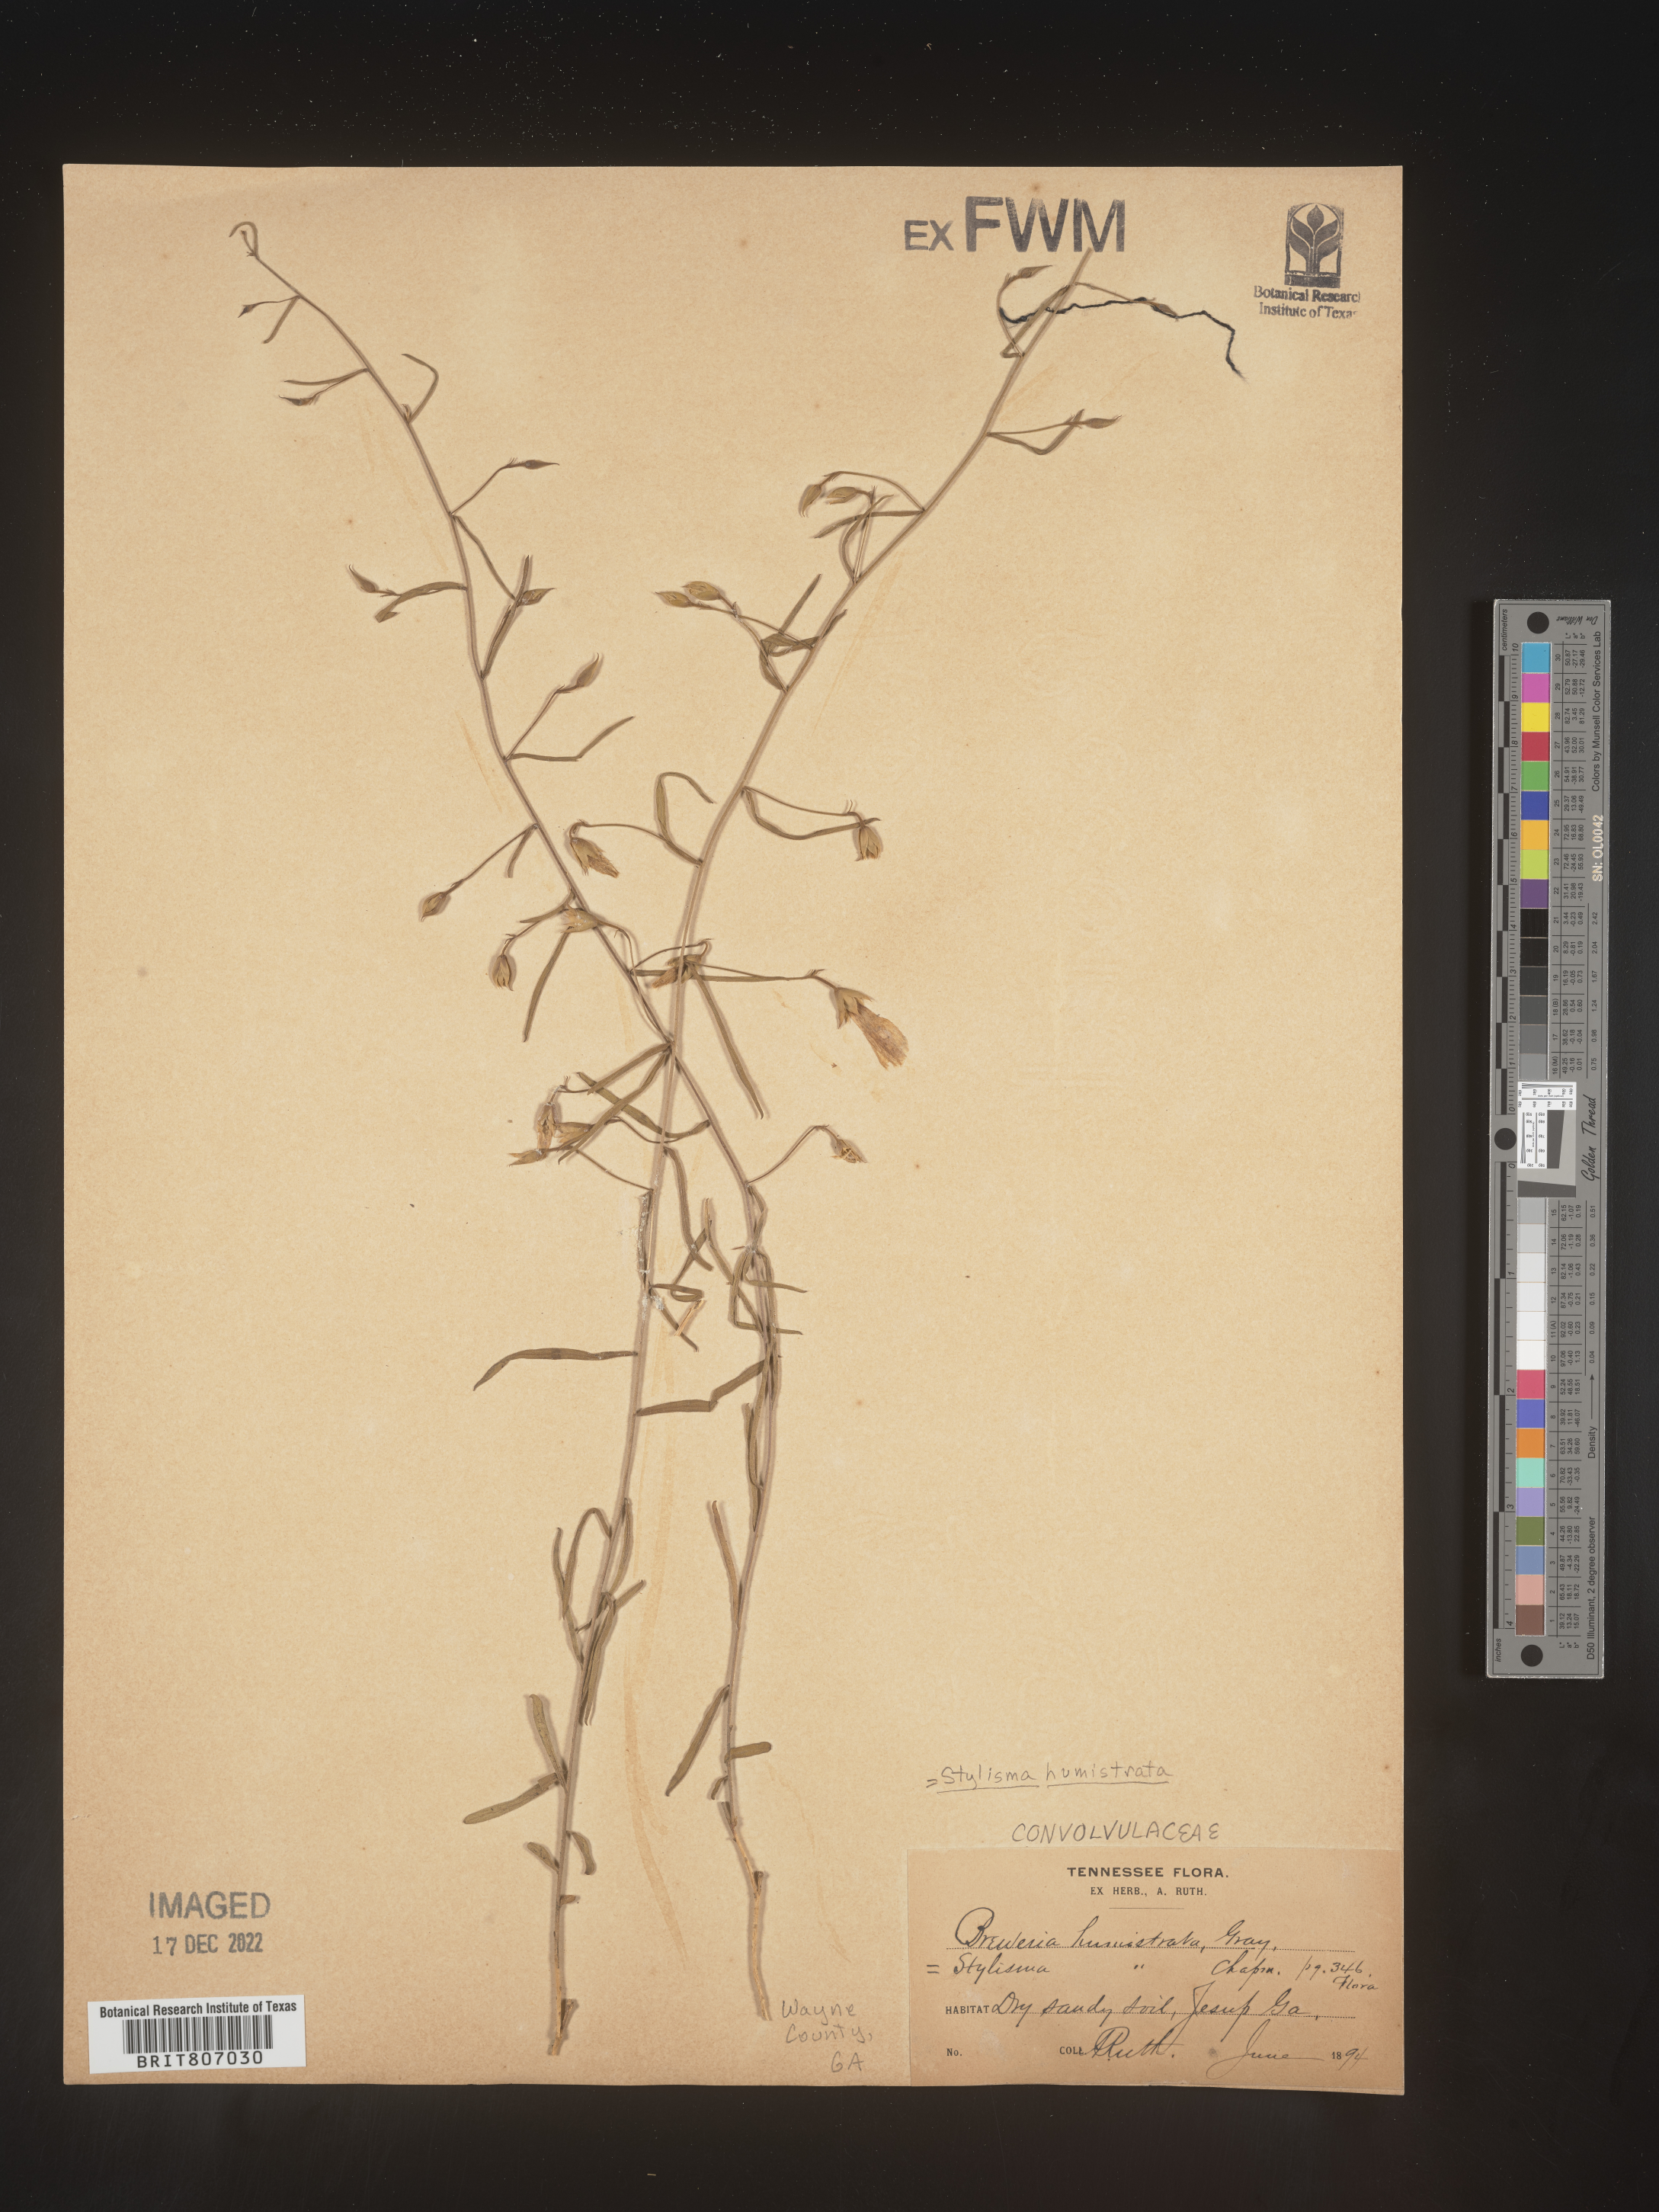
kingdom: Plantae
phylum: Tracheophyta
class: Magnoliopsida
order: Solanales
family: Convolvulaceae
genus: Stylisma
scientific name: Stylisma humistrata
